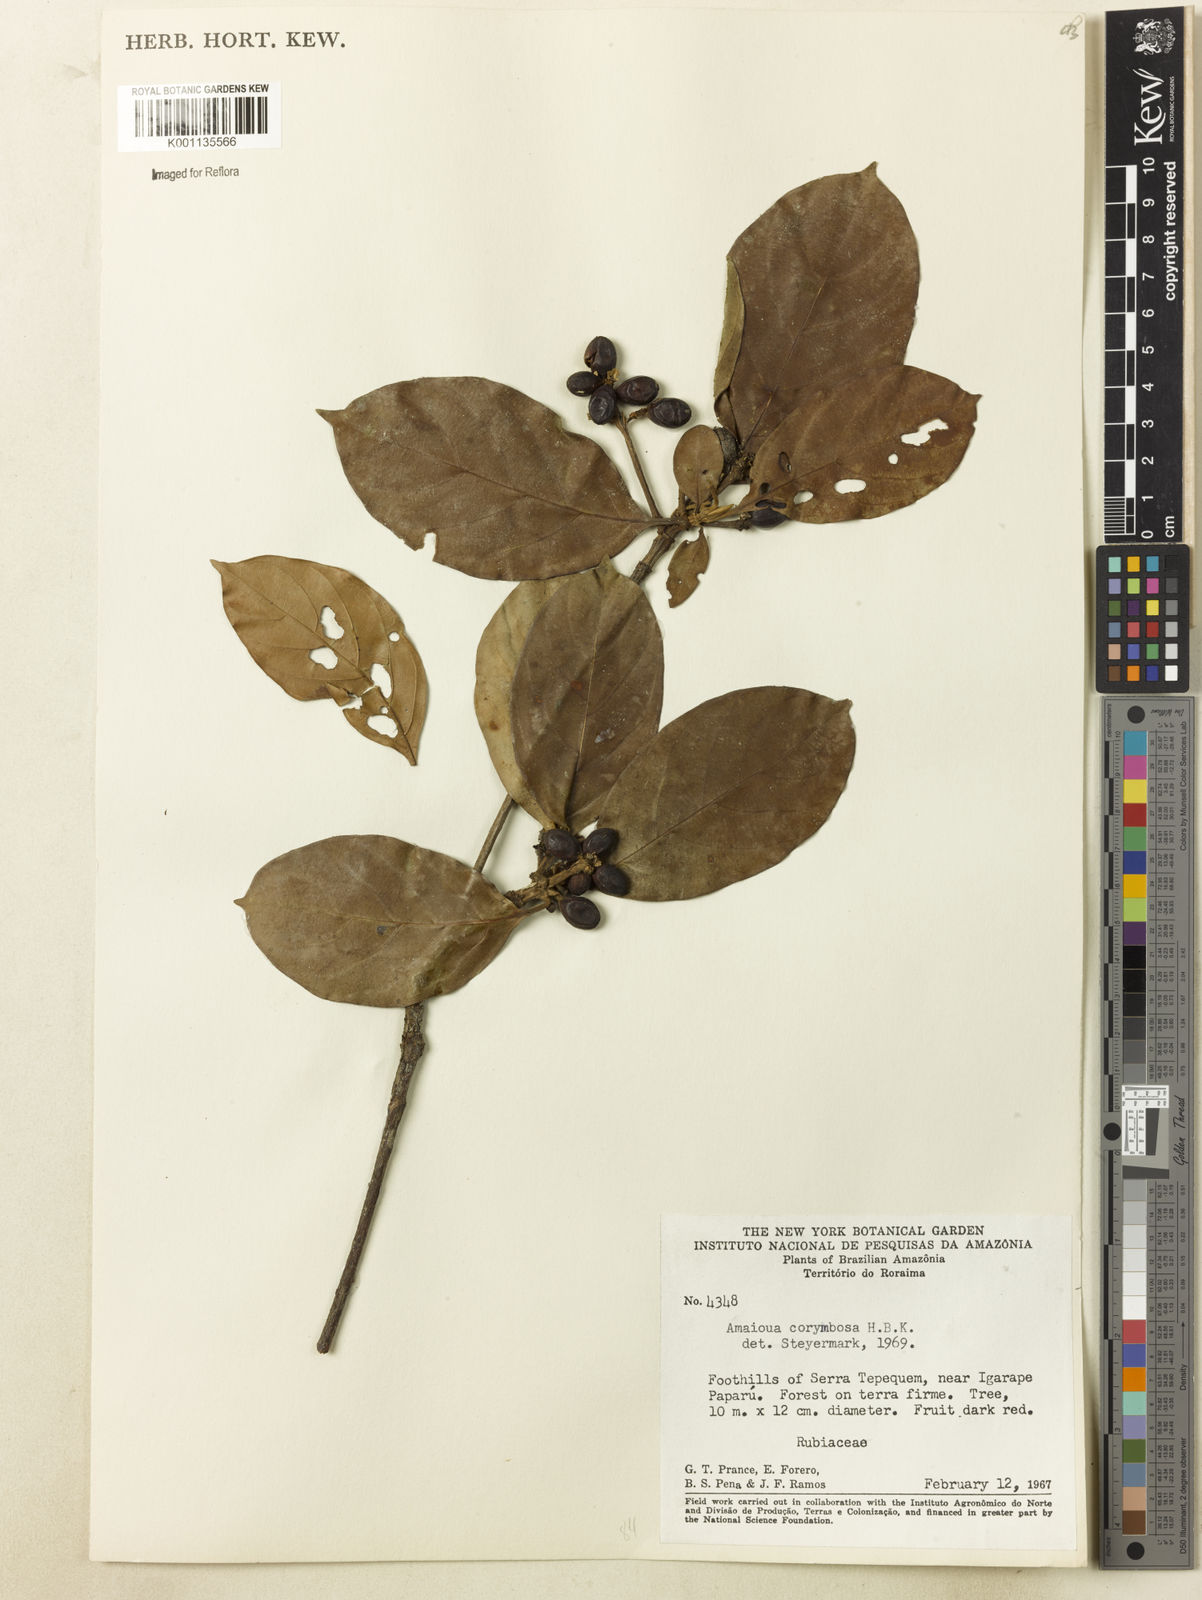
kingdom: Plantae
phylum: Tracheophyta
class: Magnoliopsida
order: Gentianales
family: Rubiaceae
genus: Amaioua
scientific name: Amaioua glomerulata
